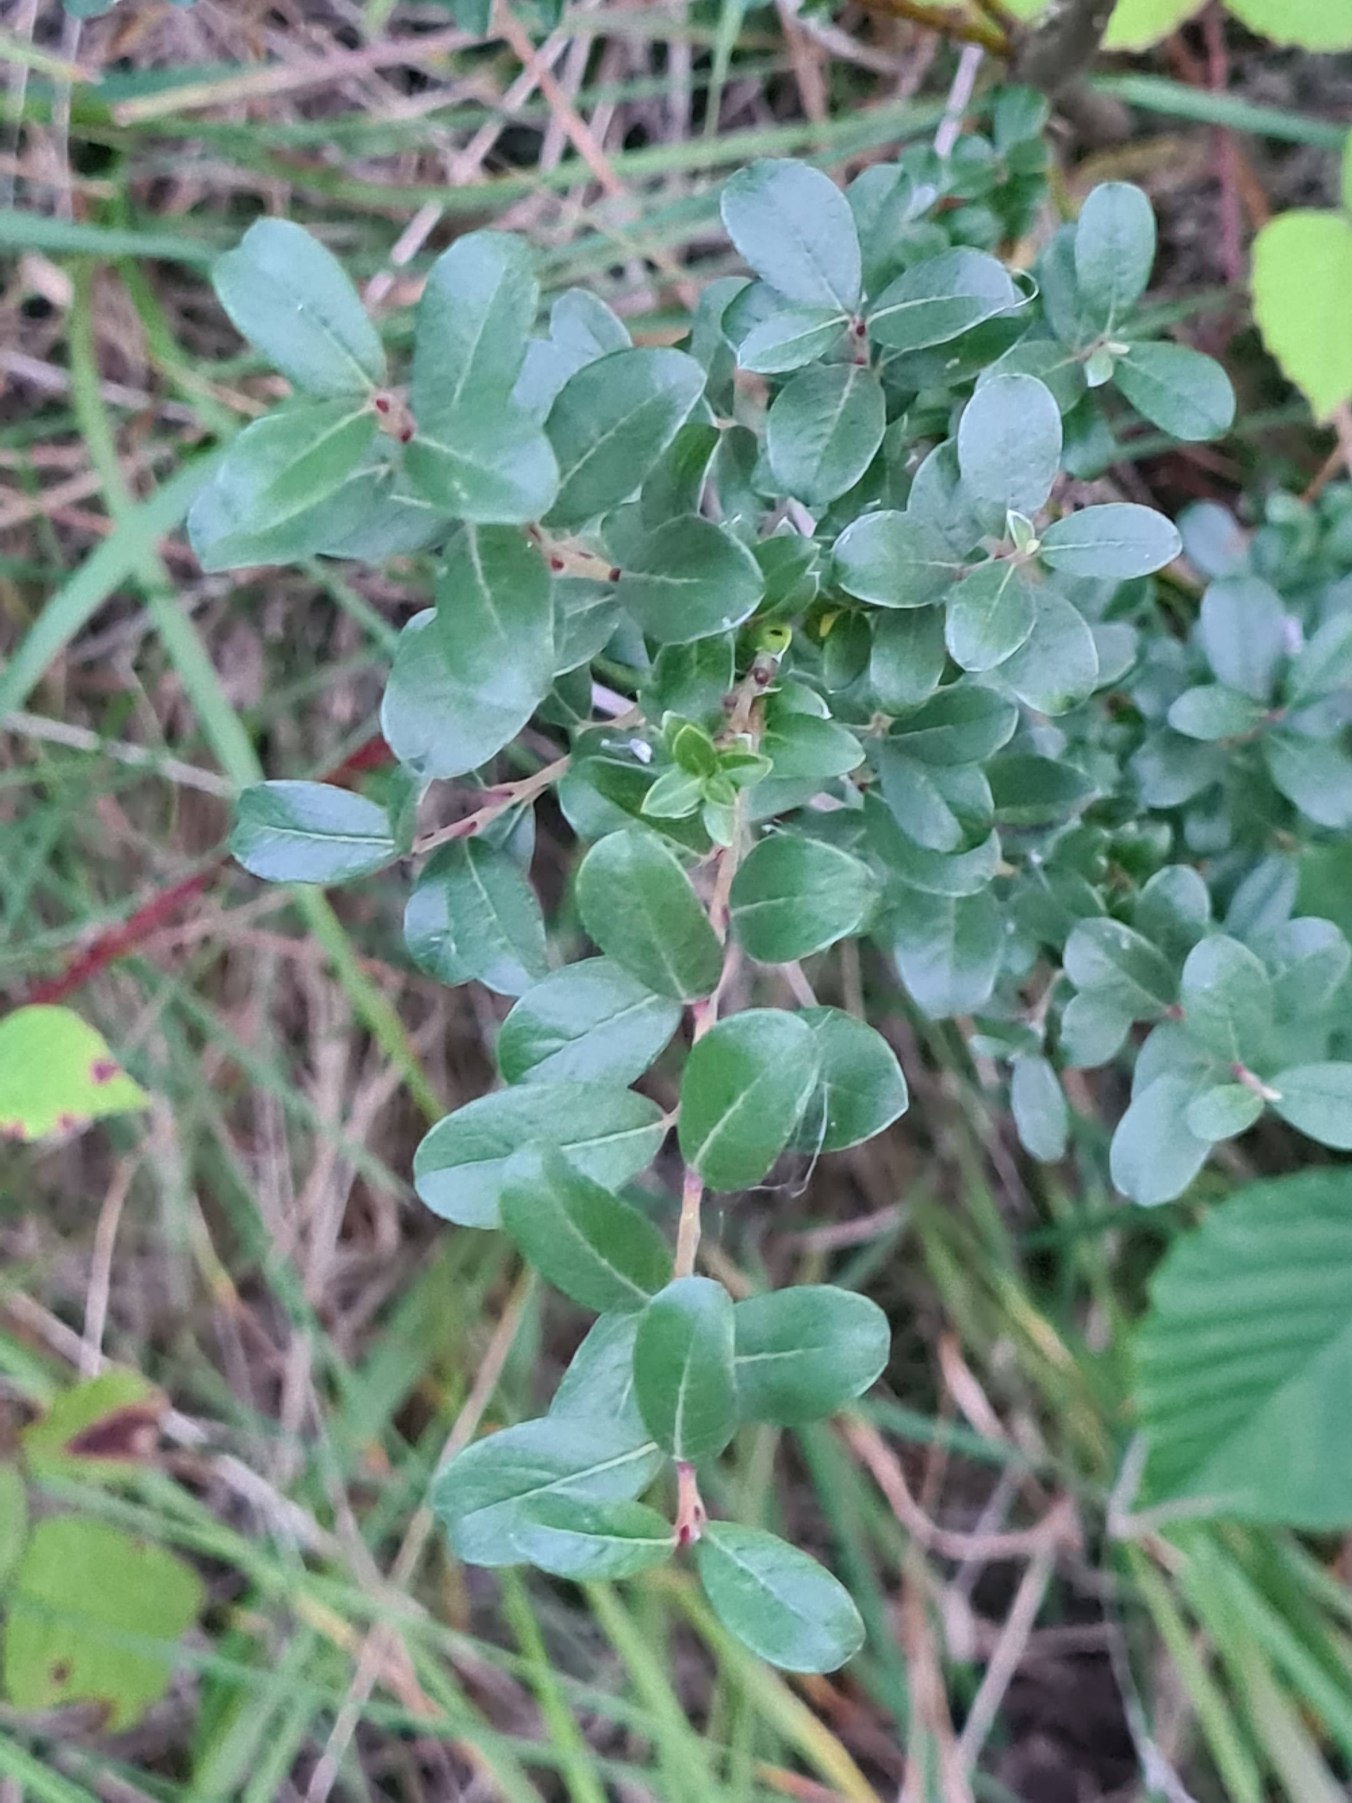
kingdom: Plantae
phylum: Tracheophyta
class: Magnoliopsida
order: Malpighiales
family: Salicaceae
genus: Salix
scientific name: Salix repens
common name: Gråris
